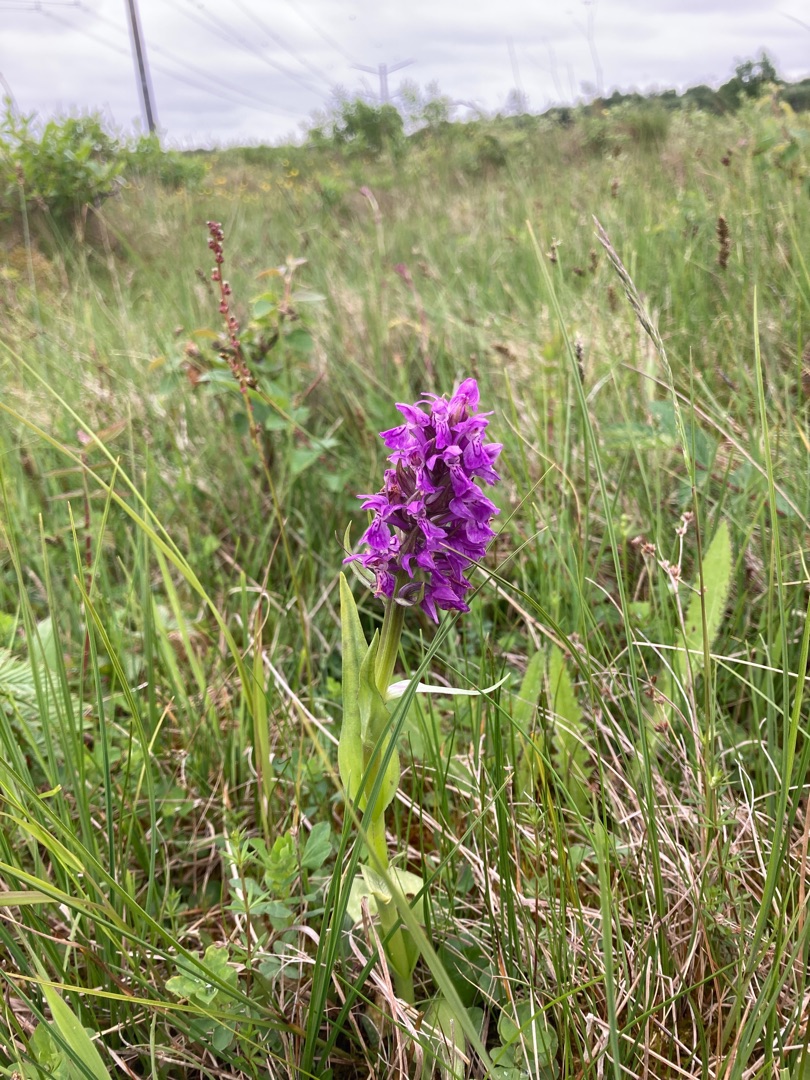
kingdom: Plantae
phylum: Tracheophyta
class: Liliopsida
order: Asparagales
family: Orchidaceae
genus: Dactylorhiza
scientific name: Dactylorhiza majalis
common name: Maj-gøgeurt
